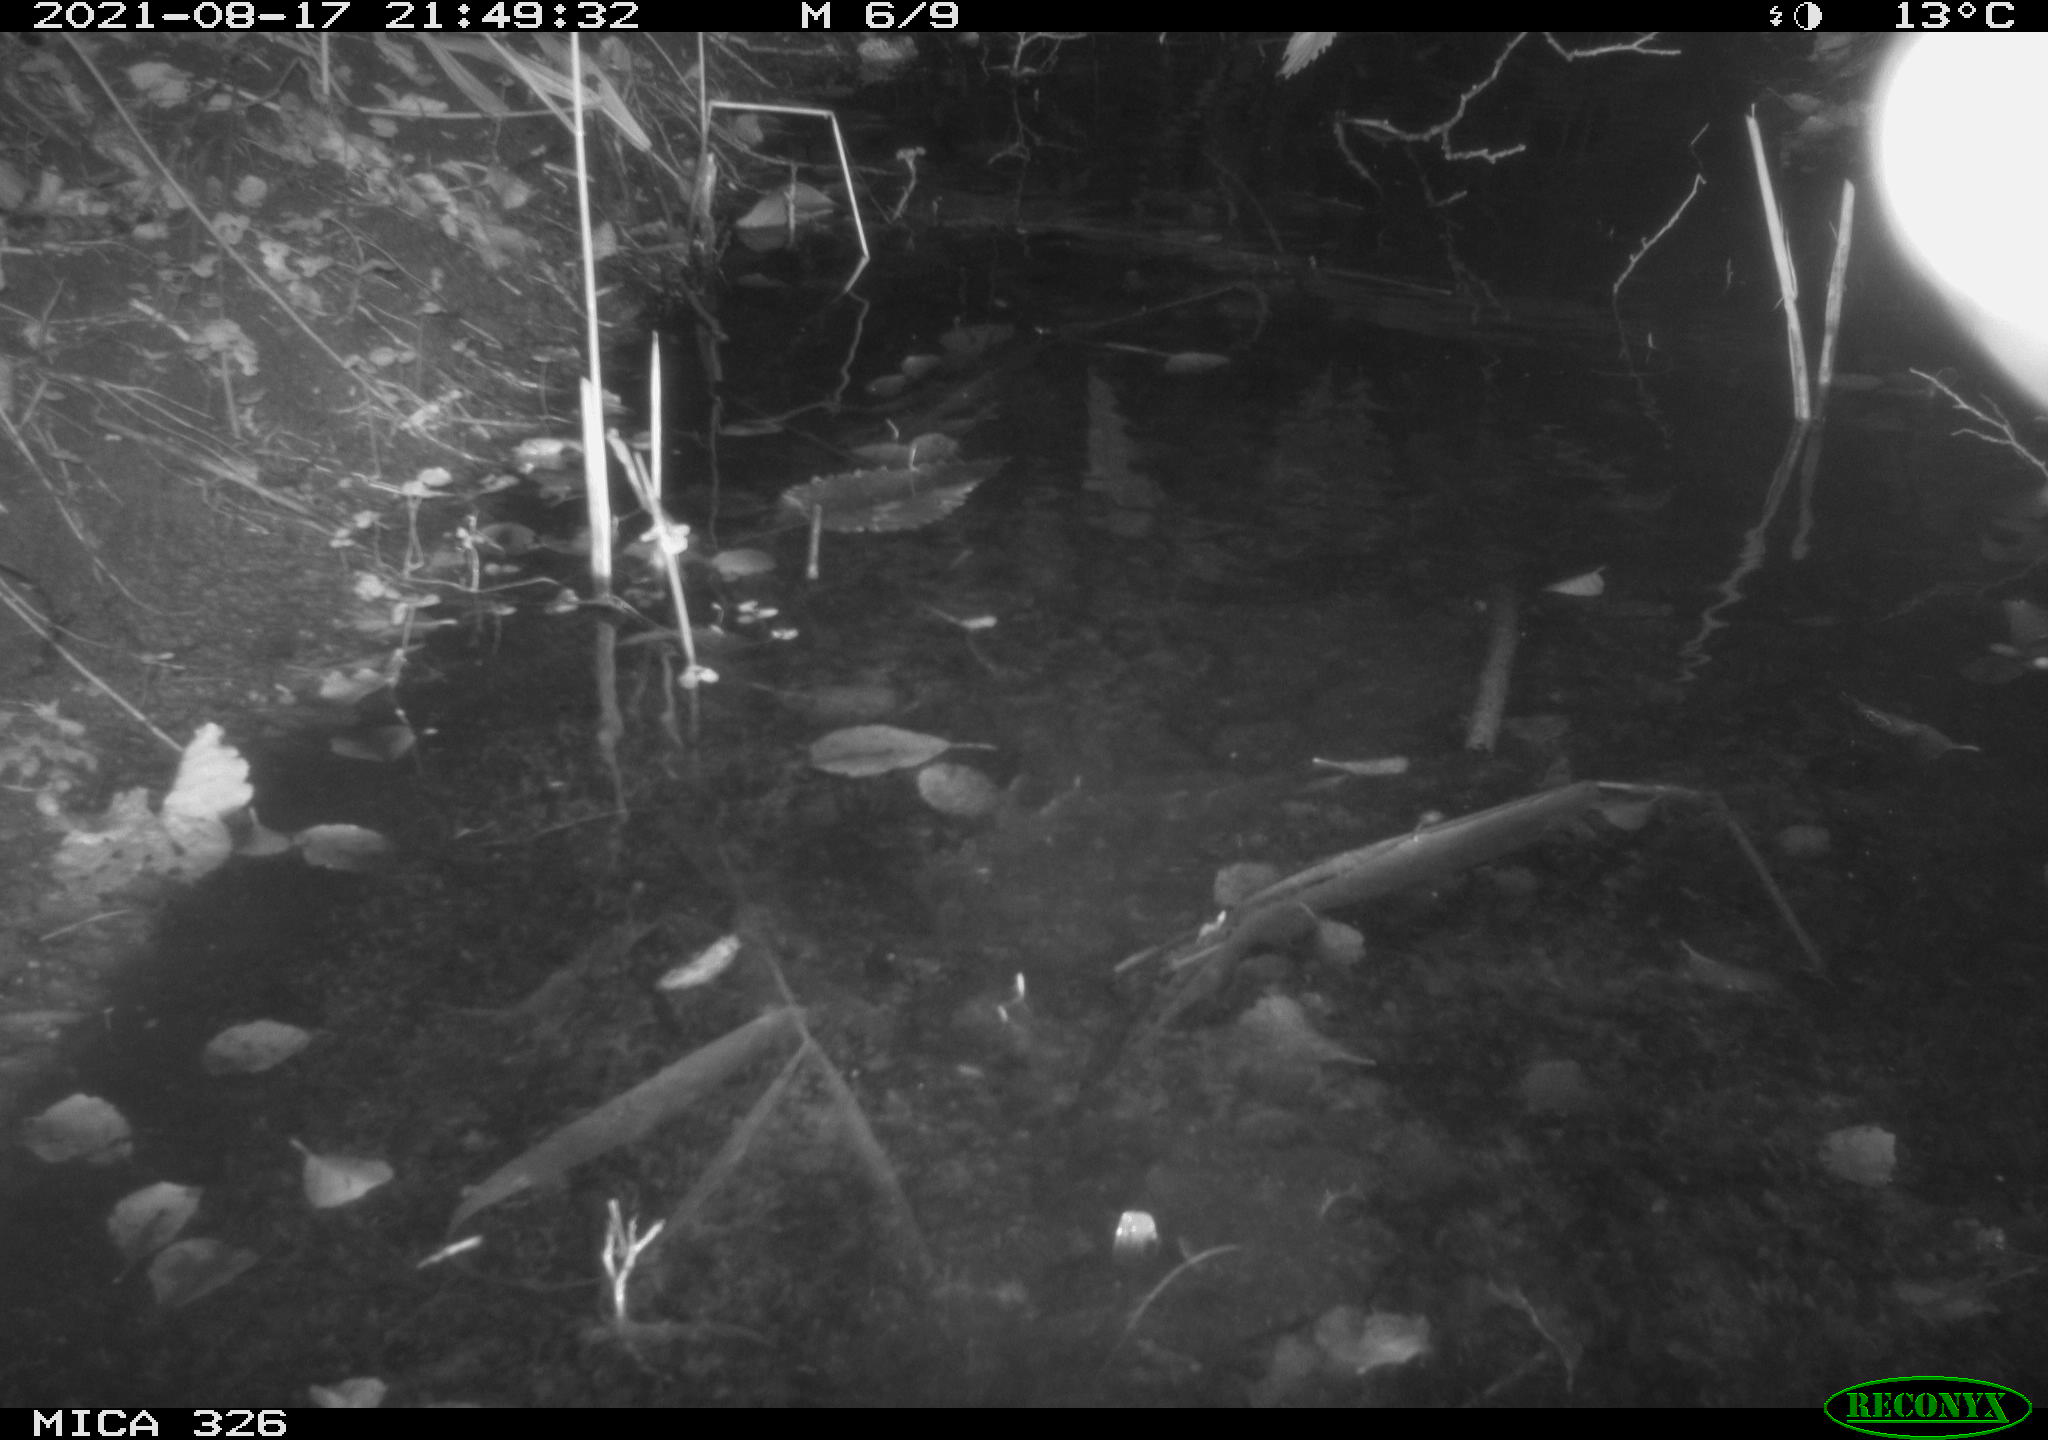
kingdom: Animalia
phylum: Chordata
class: Mammalia
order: Rodentia
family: Myocastoridae
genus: Myocastor
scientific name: Myocastor coypus
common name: Coypu
